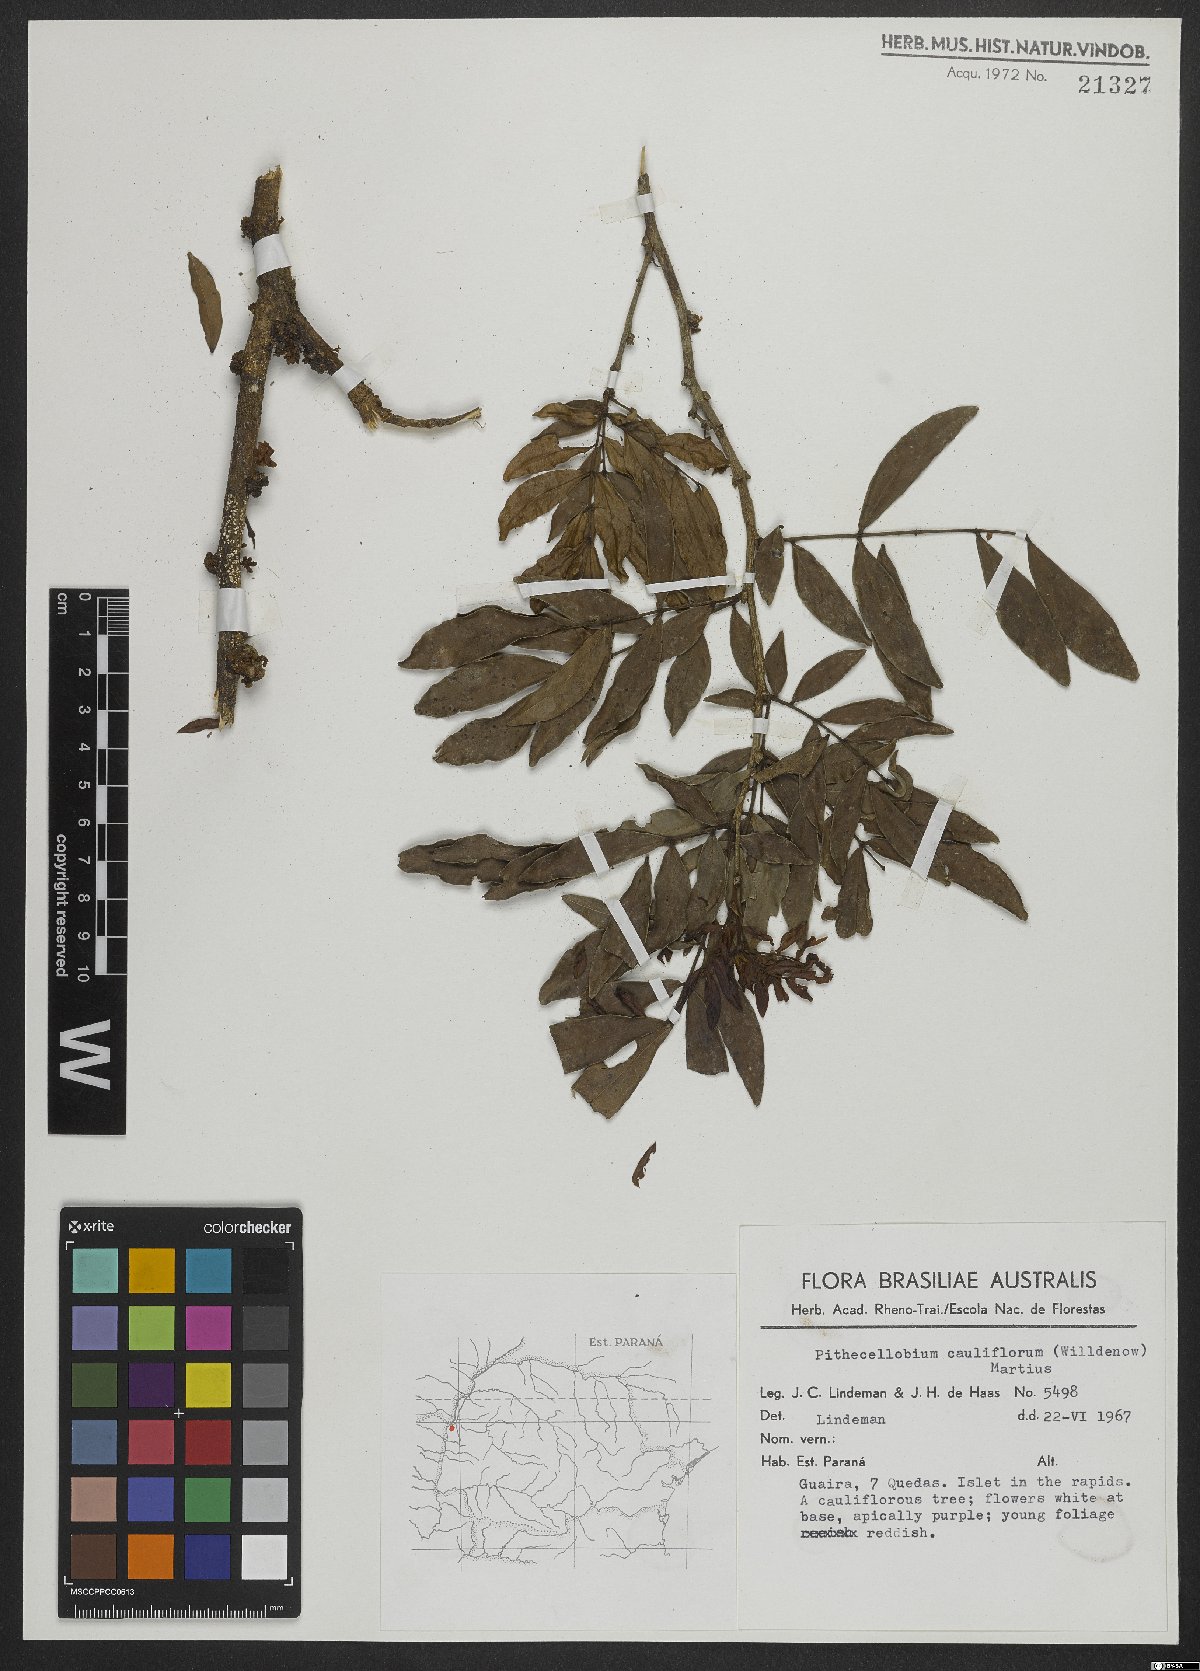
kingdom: Plantae
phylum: Tracheophyta
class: Magnoliopsida
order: Fabales
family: Fabaceae
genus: Zygia
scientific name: Zygia cauliflora
